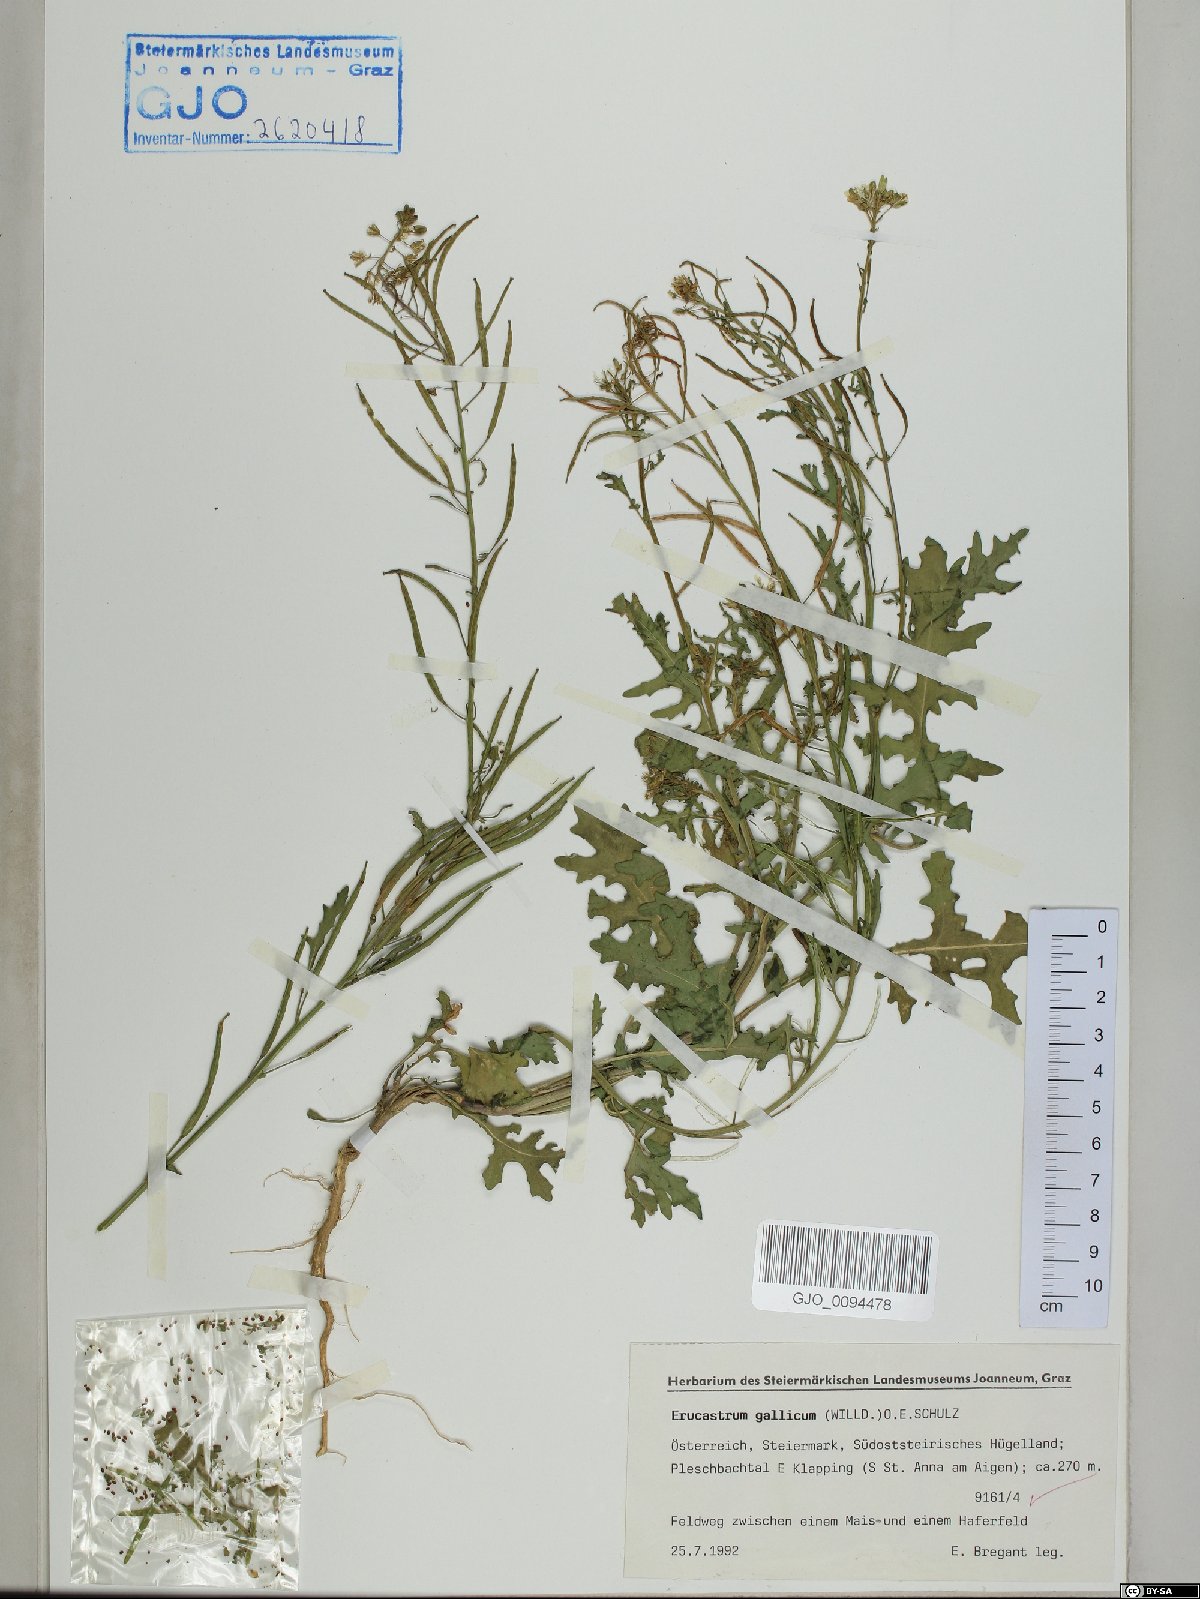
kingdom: Plantae
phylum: Tracheophyta
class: Magnoliopsida
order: Brassicales
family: Brassicaceae
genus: Erucastrum
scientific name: Erucastrum gallicum
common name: Hairy rocket
